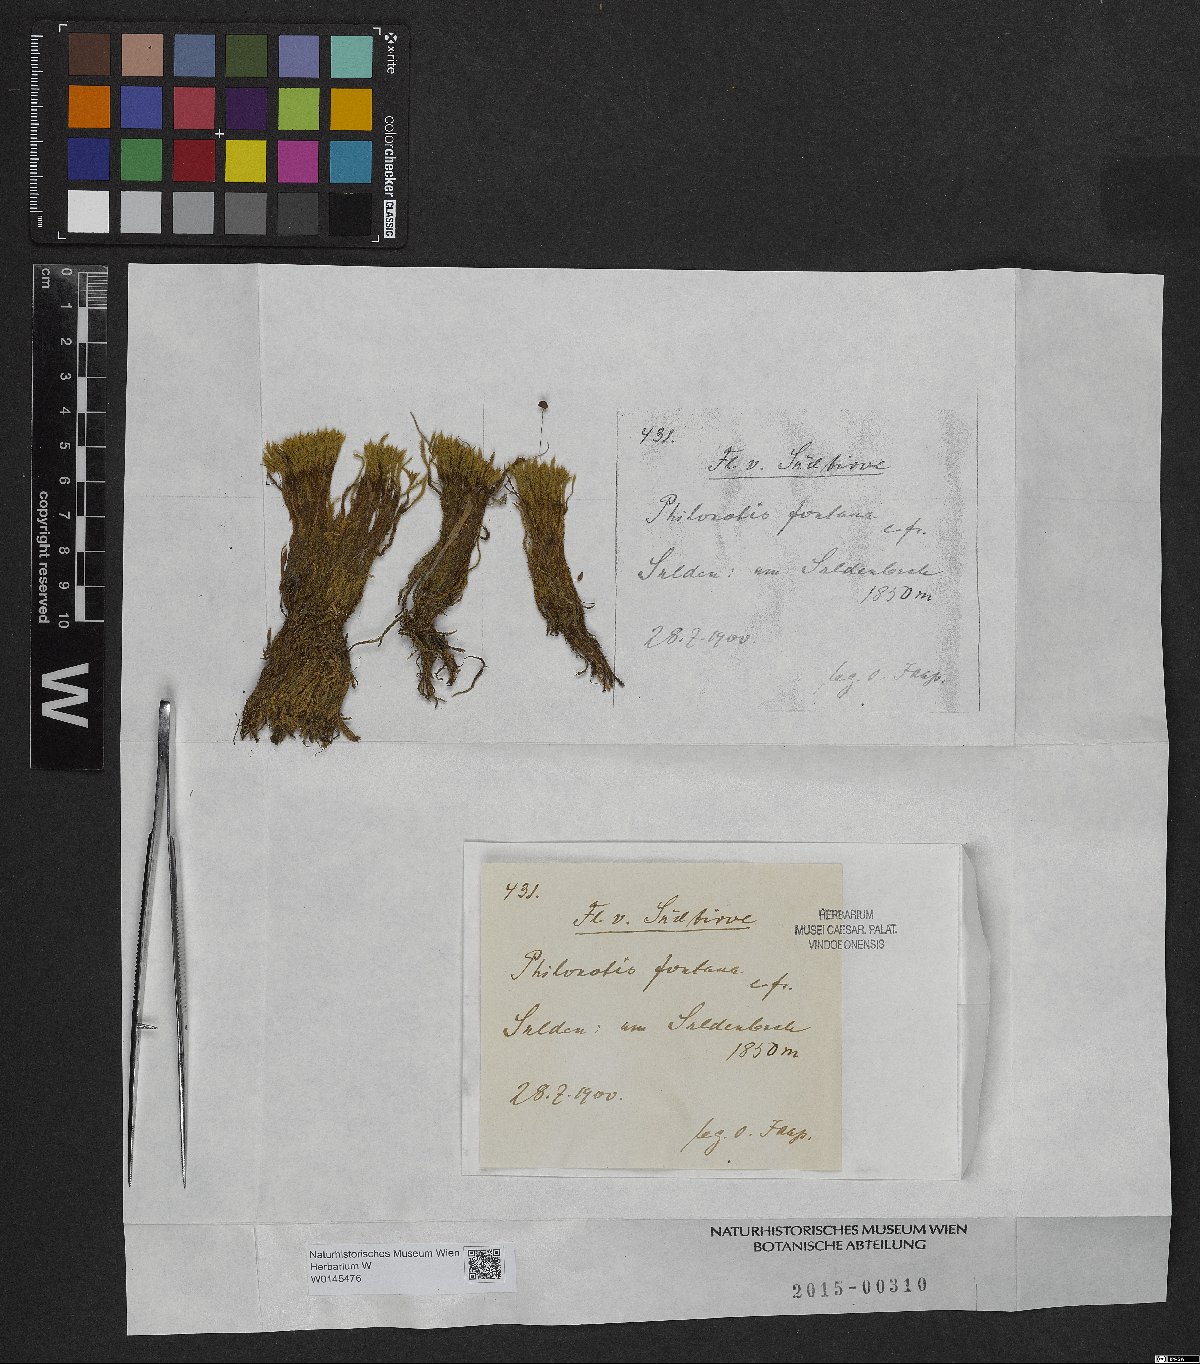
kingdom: Plantae
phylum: Bryophyta
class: Bryopsida
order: Bartramiales
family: Bartramiaceae
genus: Philonotis
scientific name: Philonotis fontana
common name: Fountain apple-moss
